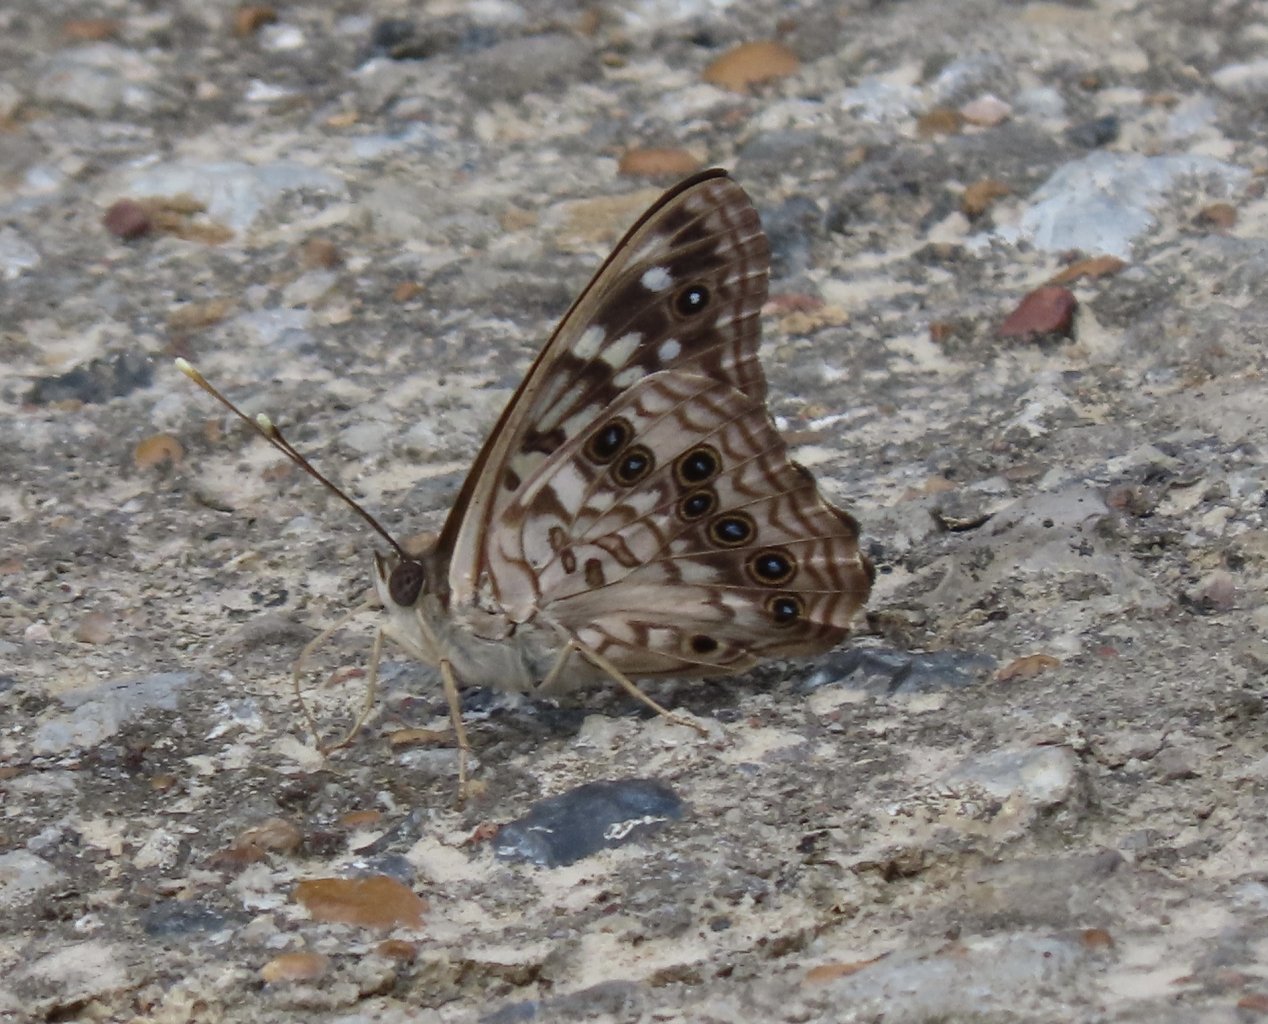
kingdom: Animalia
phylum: Arthropoda
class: Insecta
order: Lepidoptera
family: Nymphalidae
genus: Asterocampa
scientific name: Asterocampa celtis
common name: Hackberry Emperor
